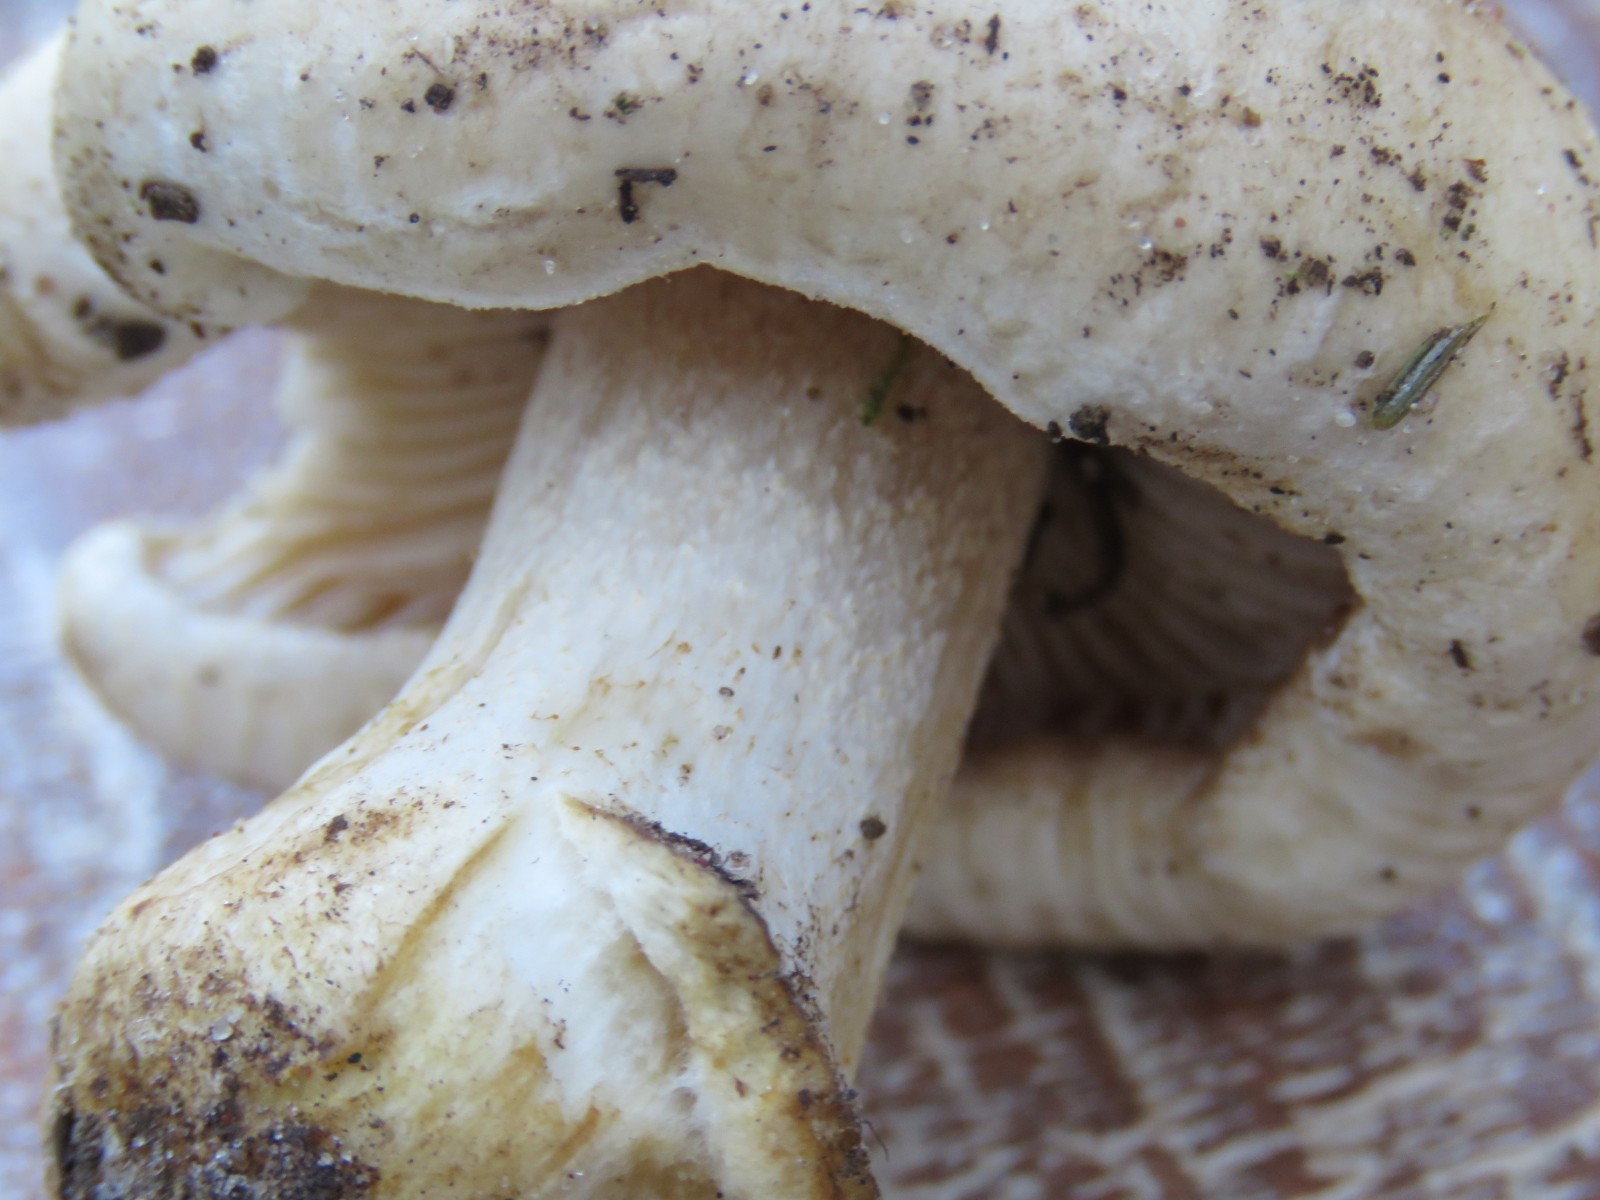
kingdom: Fungi
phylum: Basidiomycota
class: Agaricomycetes
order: Agaricales
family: Hymenogastraceae
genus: Hebeloma
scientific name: Hebeloma
